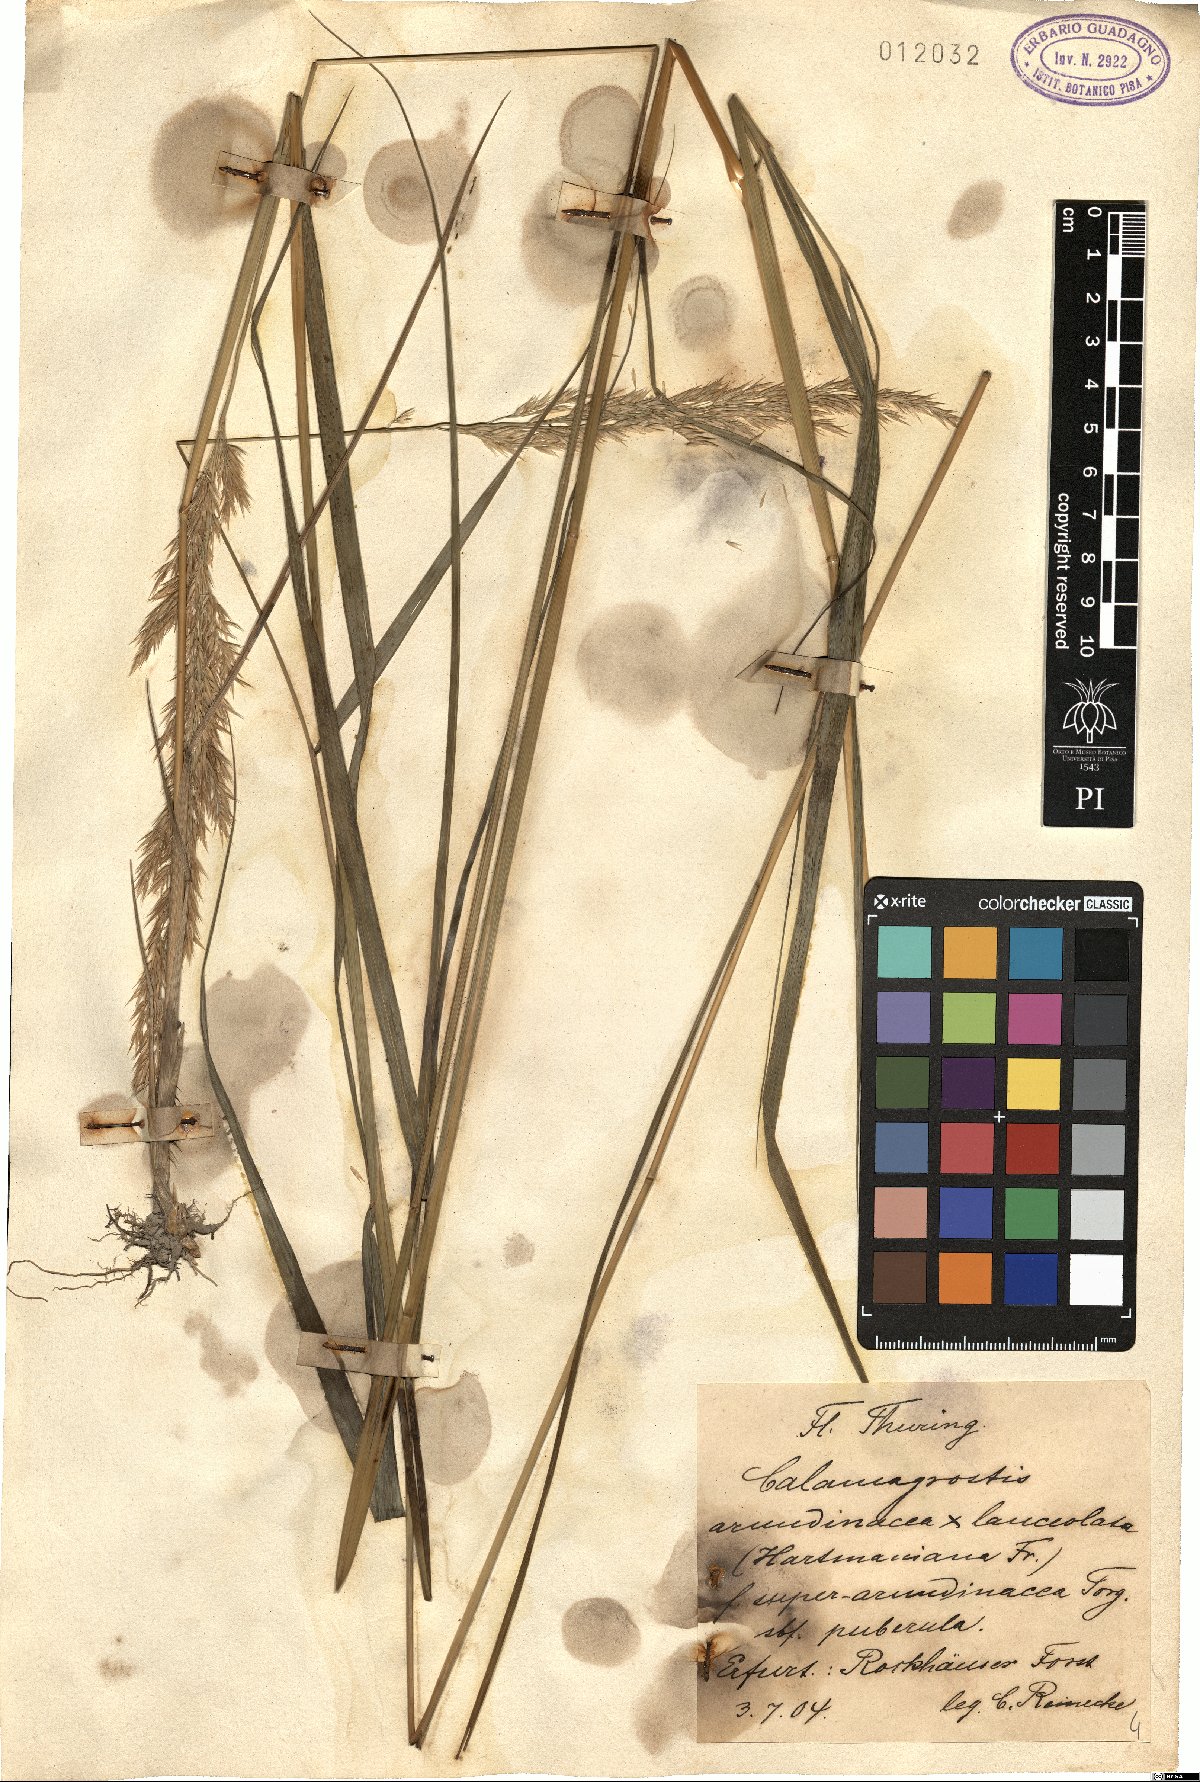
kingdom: Plantae
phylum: Tracheophyta
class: Liliopsida
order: Poales
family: Poaceae
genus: Calamagrostis
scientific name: Calamagrostis hartmaniana
